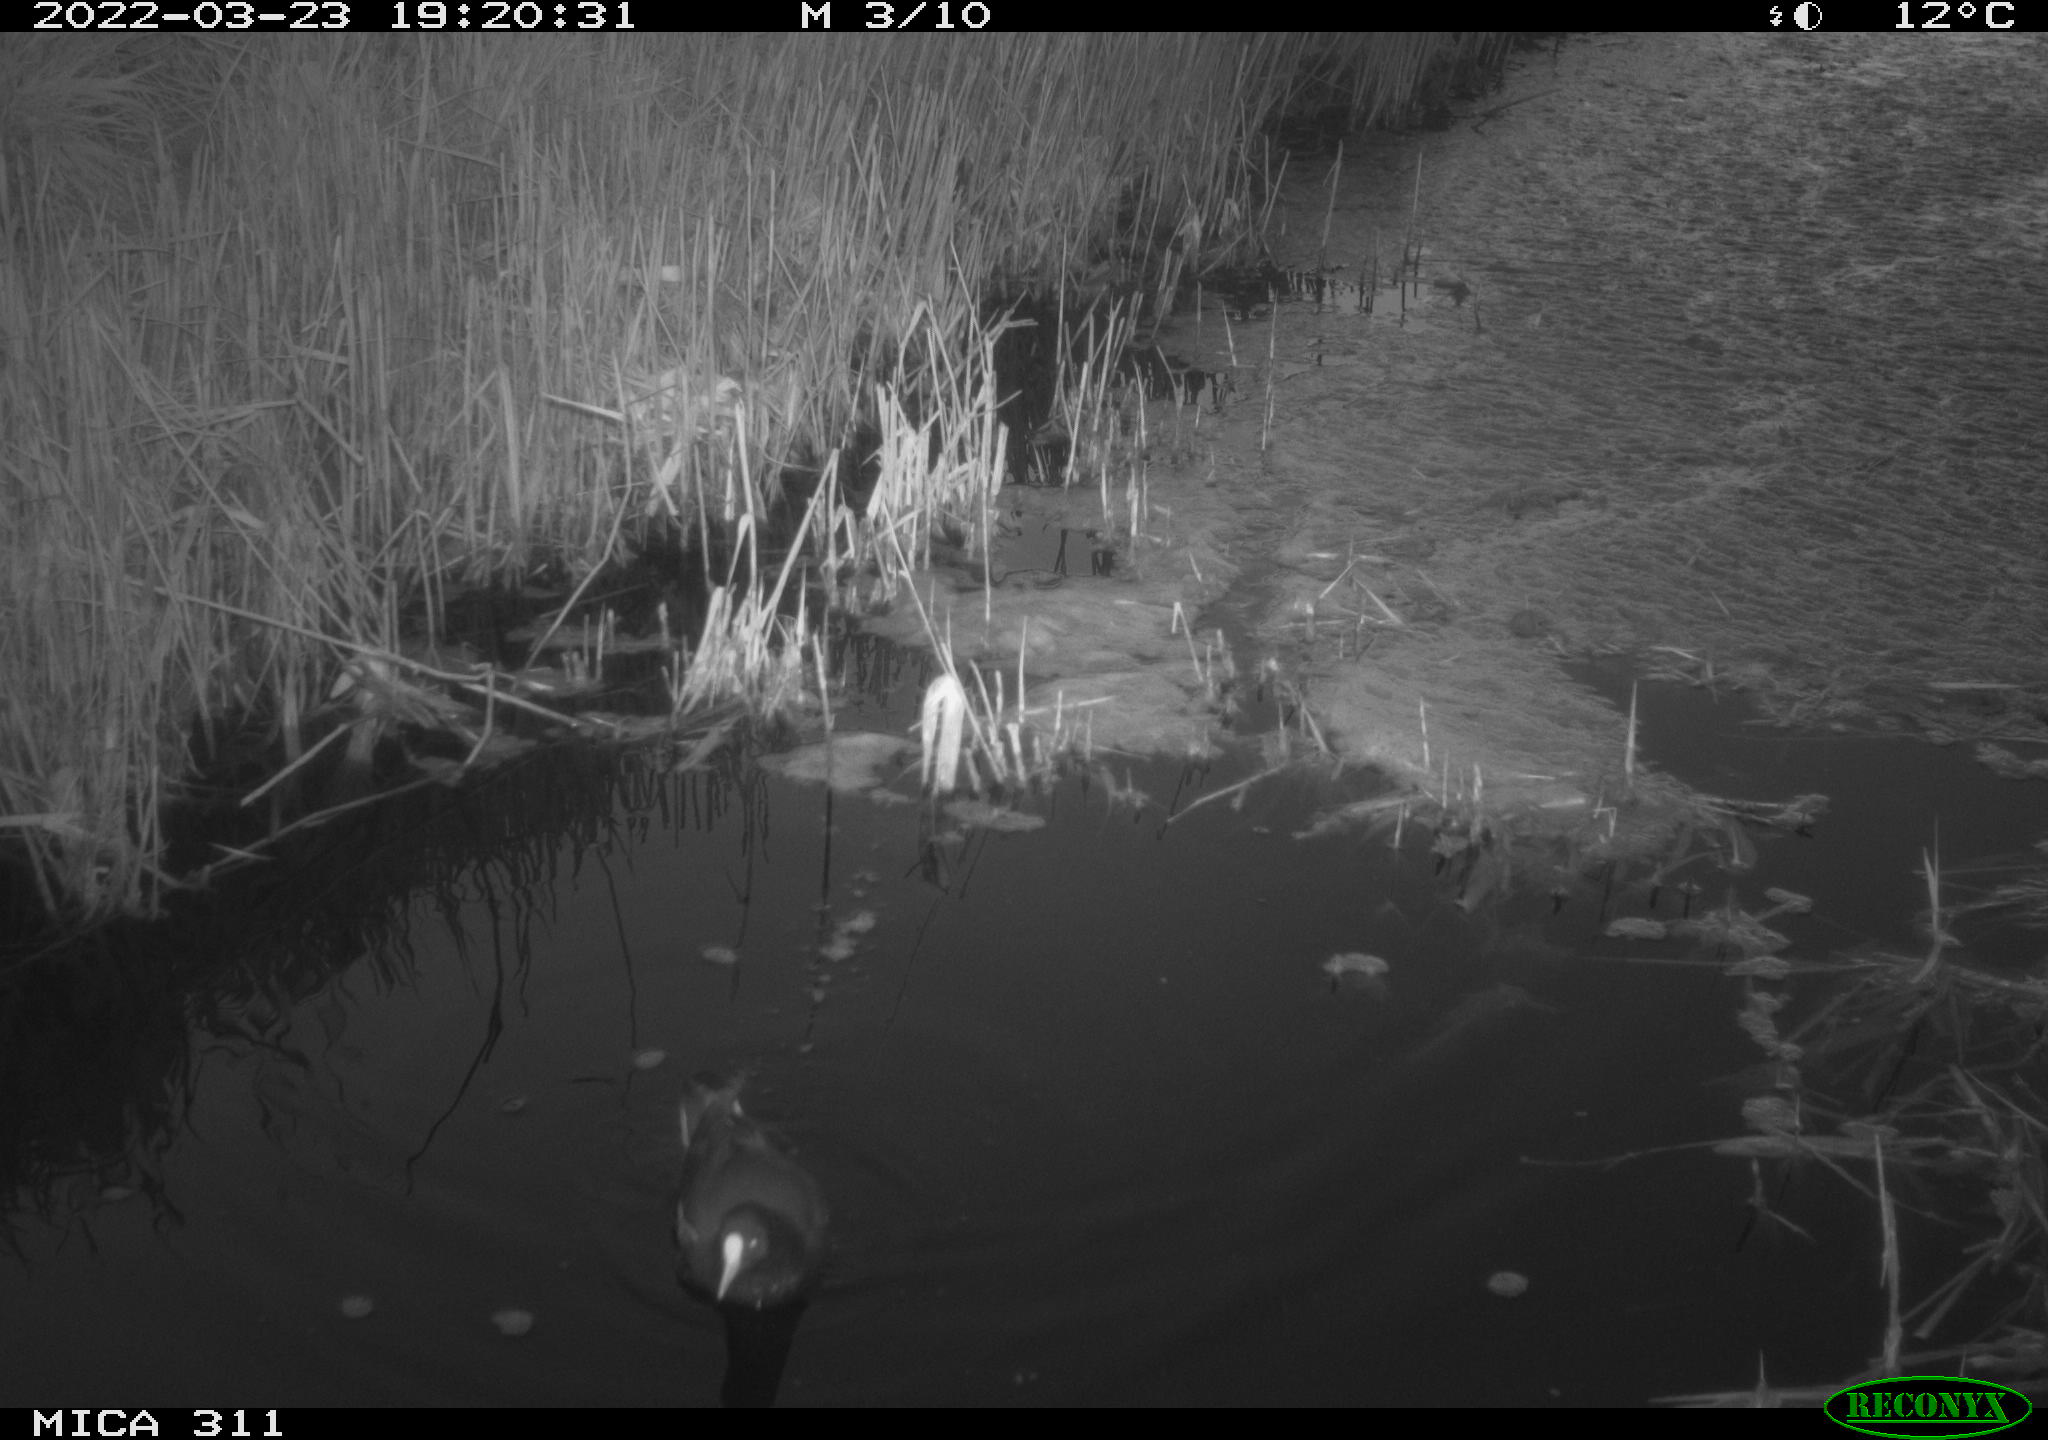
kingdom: Animalia
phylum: Chordata
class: Aves
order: Gruiformes
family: Rallidae
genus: Gallinula
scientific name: Gallinula chloropus
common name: Common moorhen
